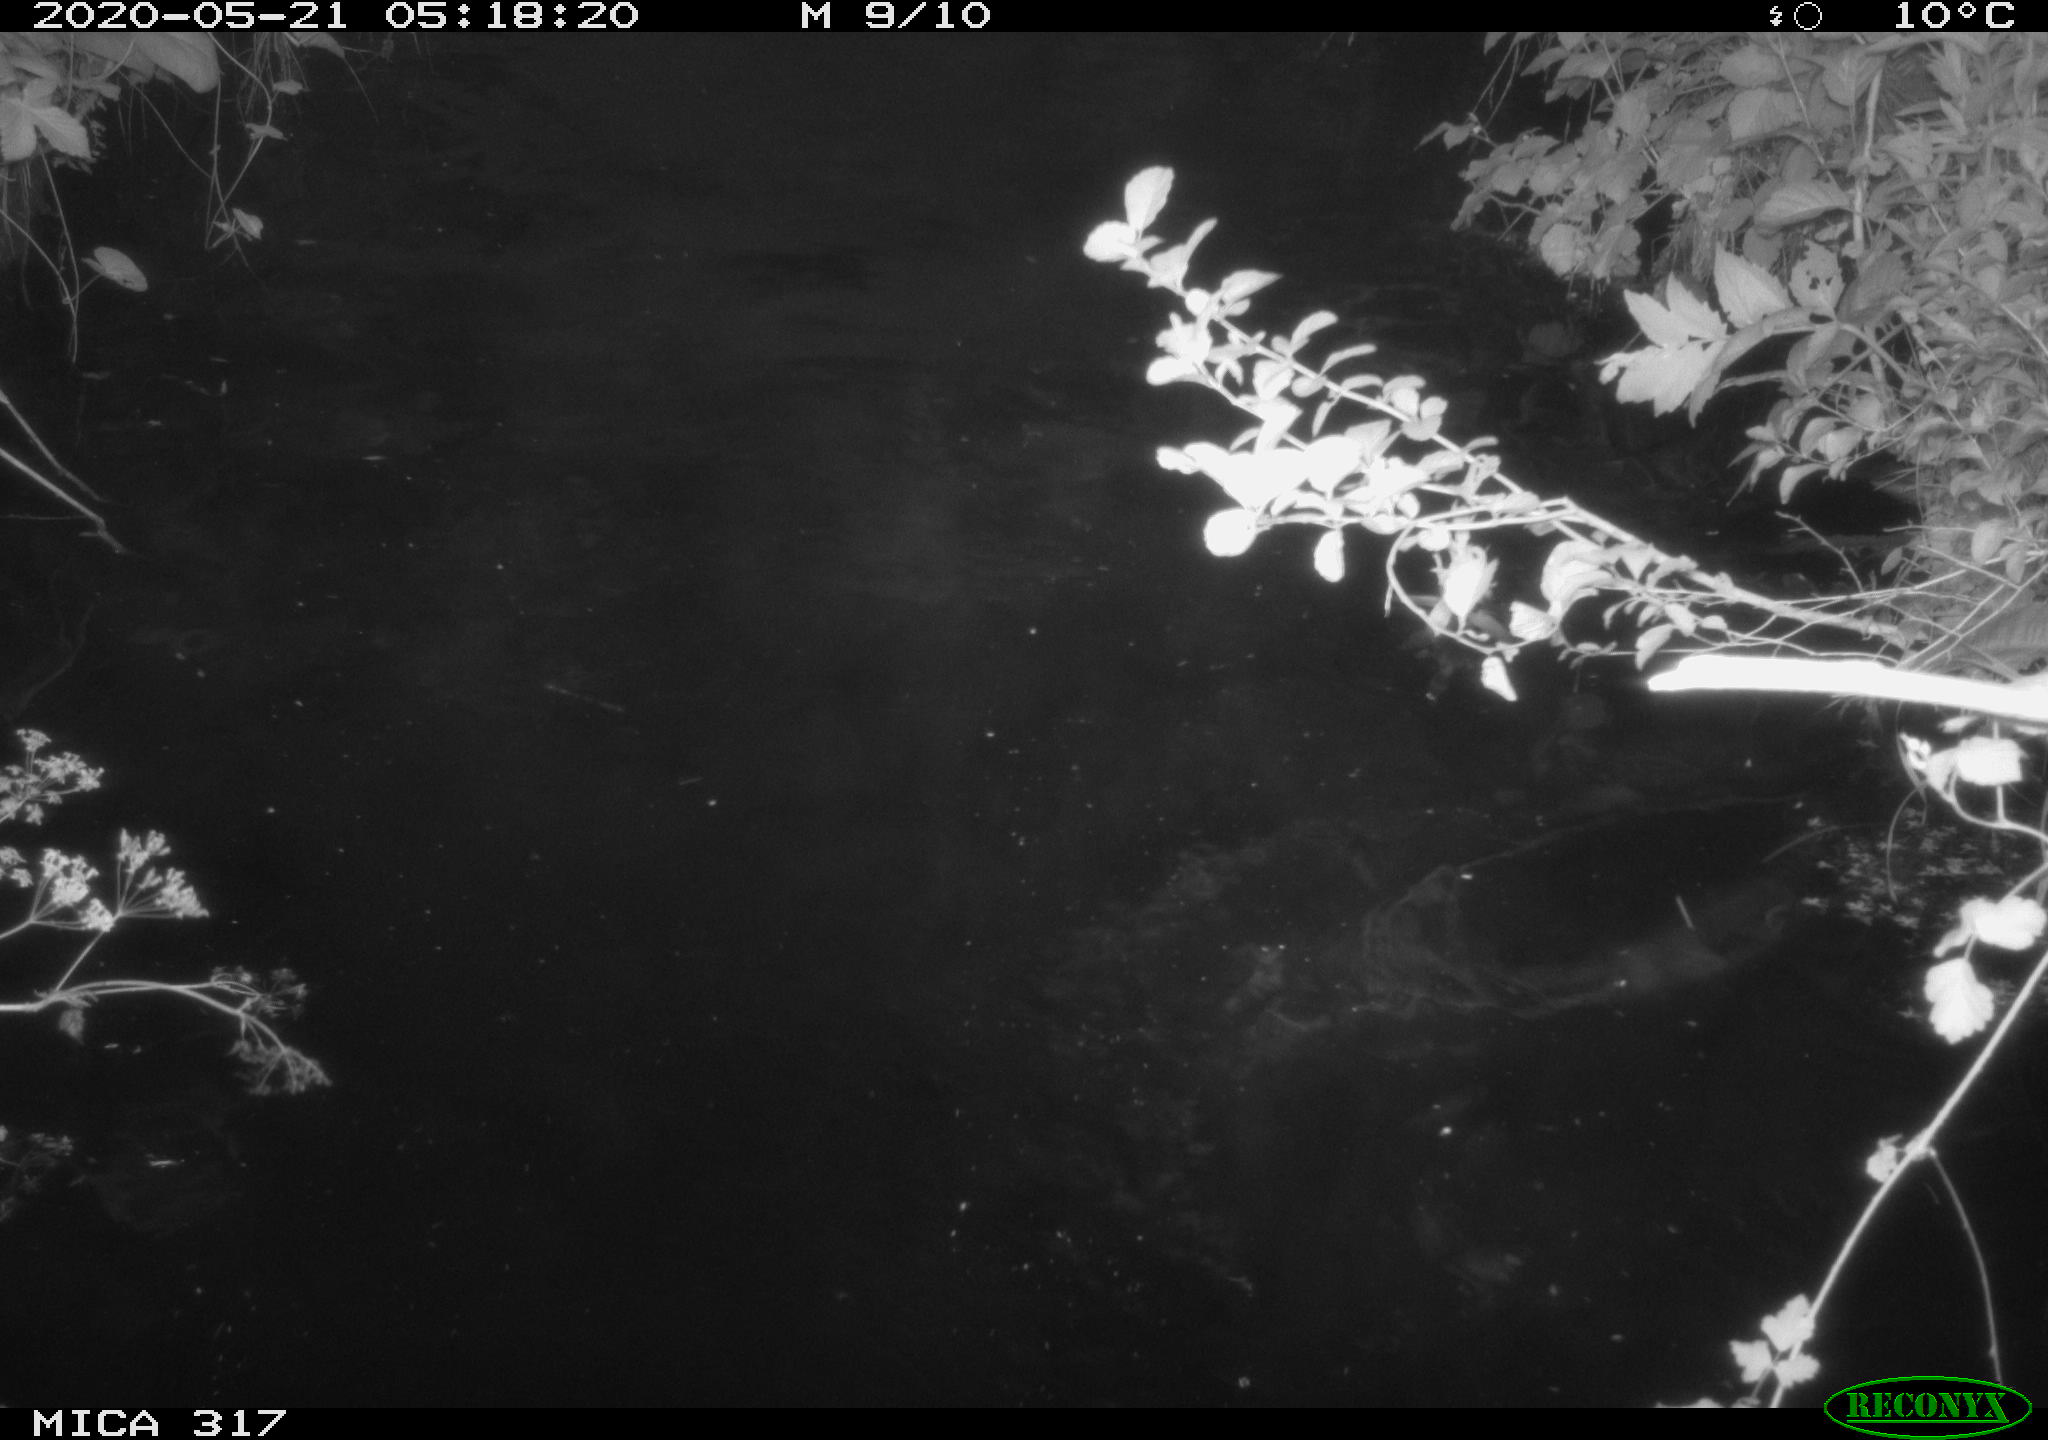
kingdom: Animalia
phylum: Chordata
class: Aves
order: Anseriformes
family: Anatidae
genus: Anas
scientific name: Anas platyrhynchos
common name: Mallard
